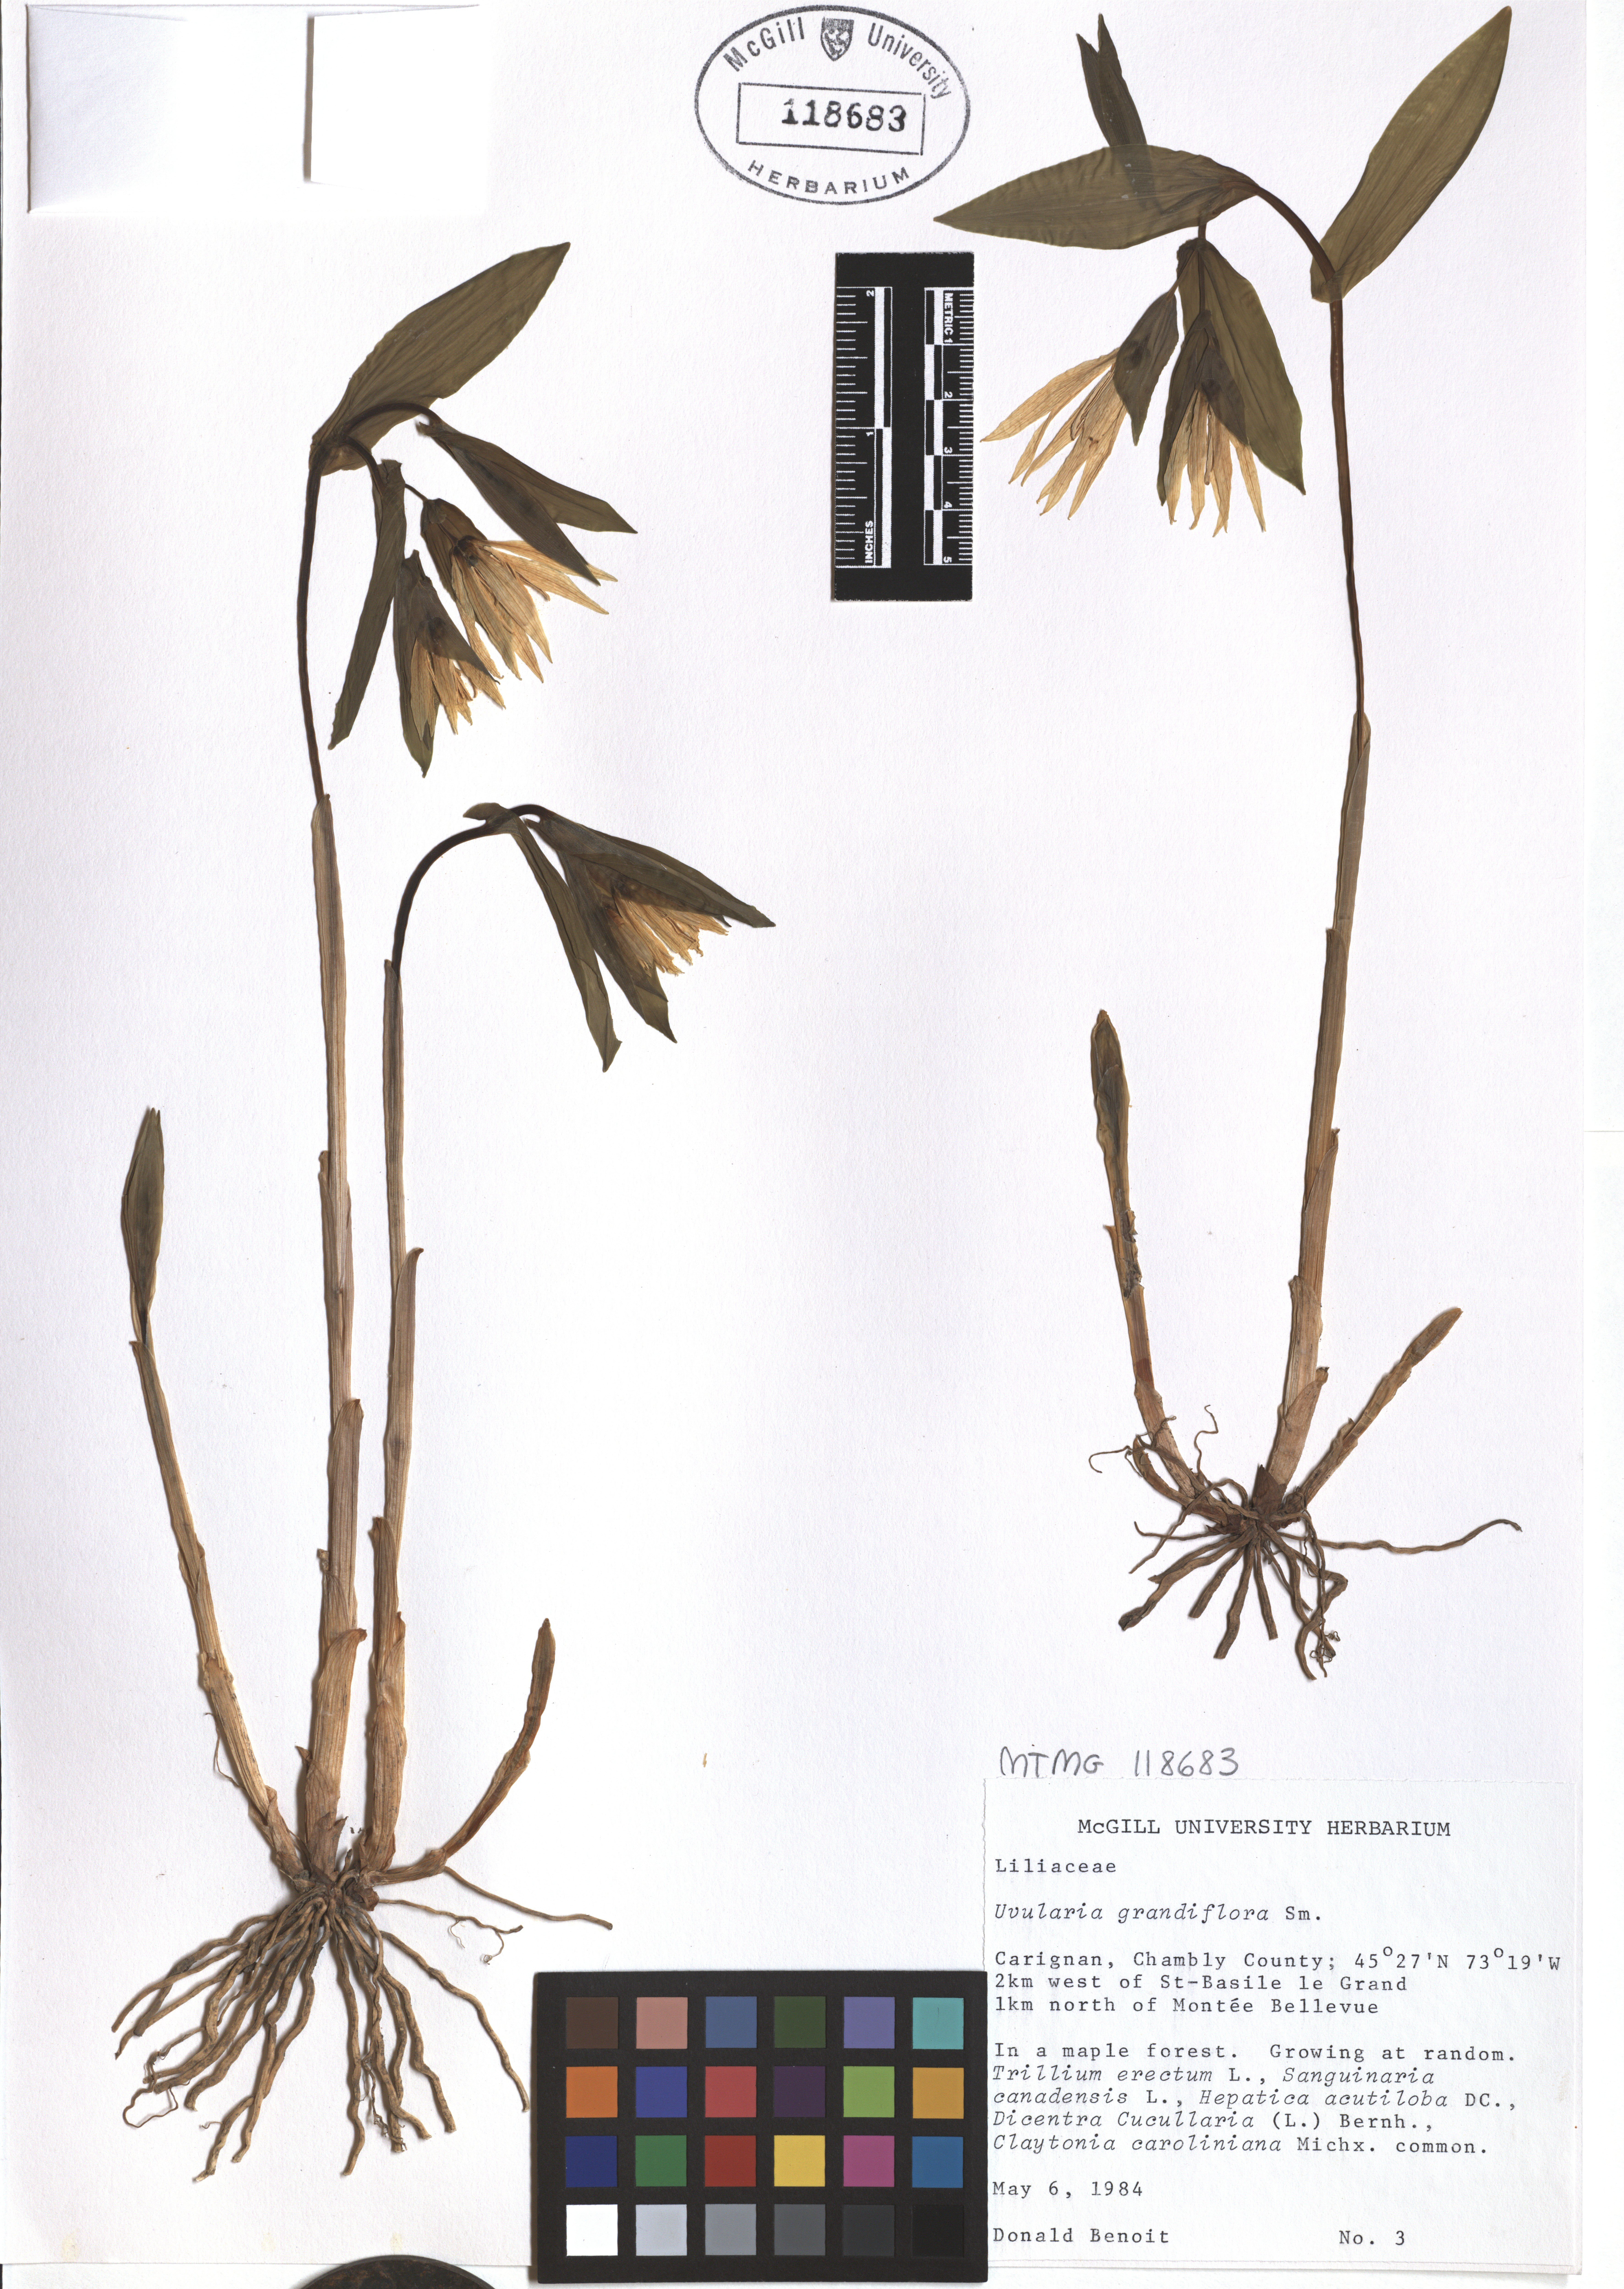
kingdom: Plantae
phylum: Tracheophyta
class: Liliopsida
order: Liliales
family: Colchicaceae
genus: Uvularia
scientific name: Uvularia grandiflora
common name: Bellwort
